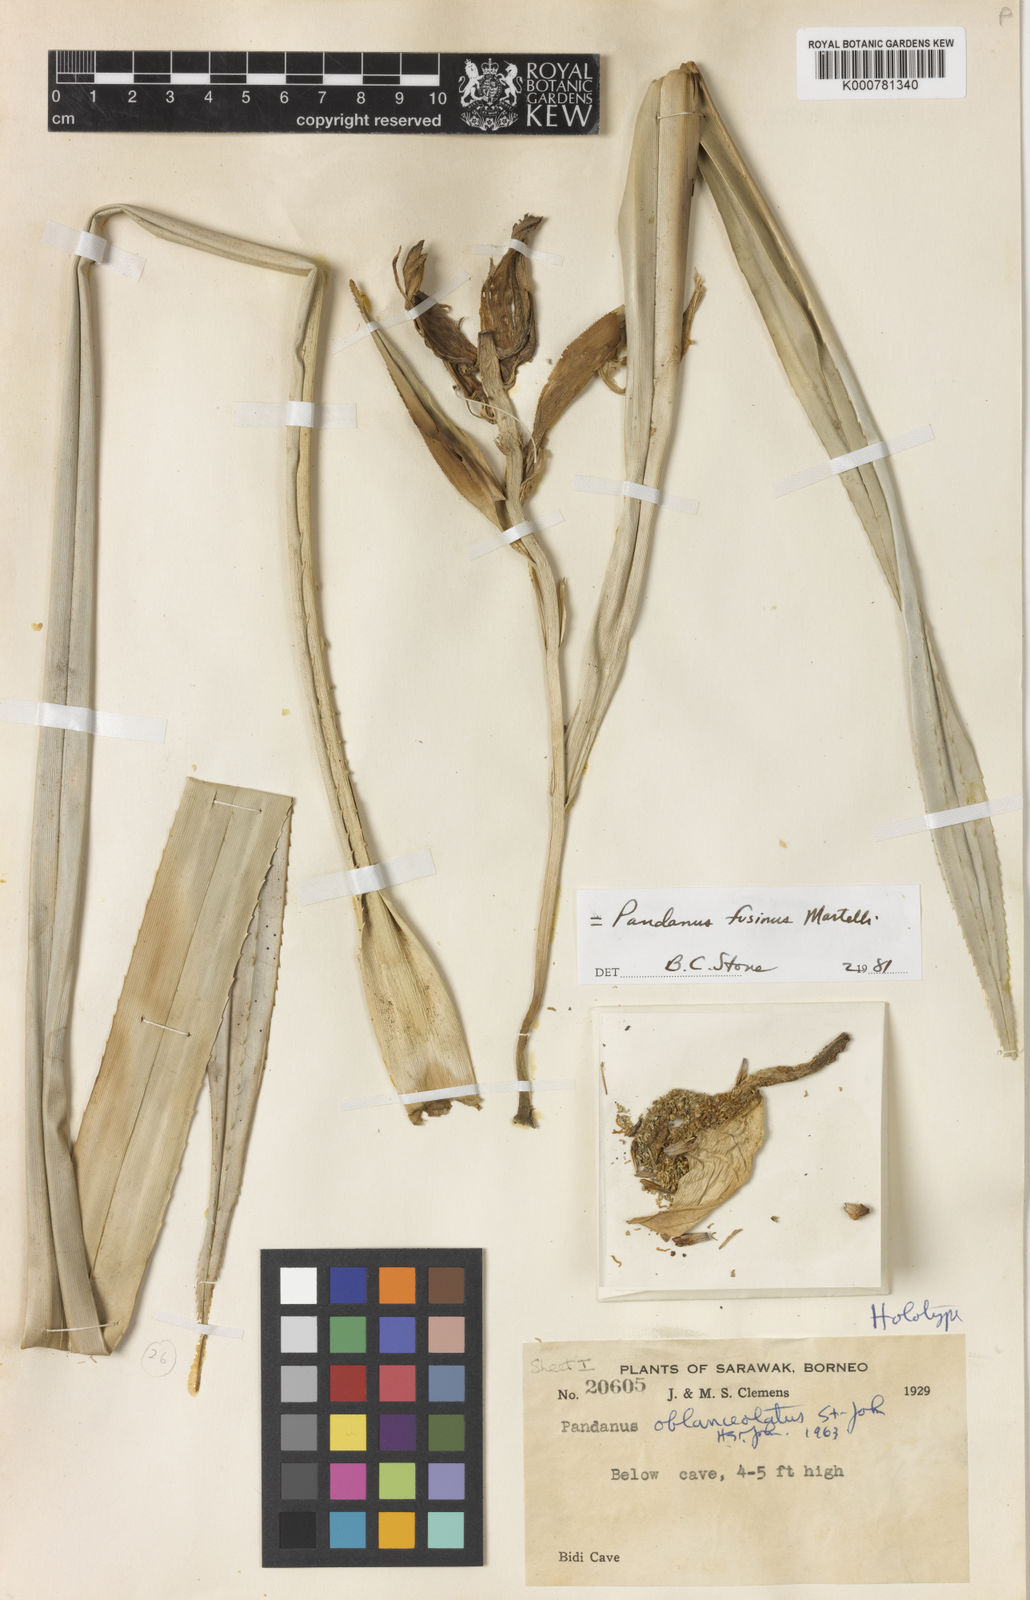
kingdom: Plantae
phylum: Tracheophyta
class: Liliopsida
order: Pandanales
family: Pandanaceae
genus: Pandanus
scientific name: Pandanus fusinus
